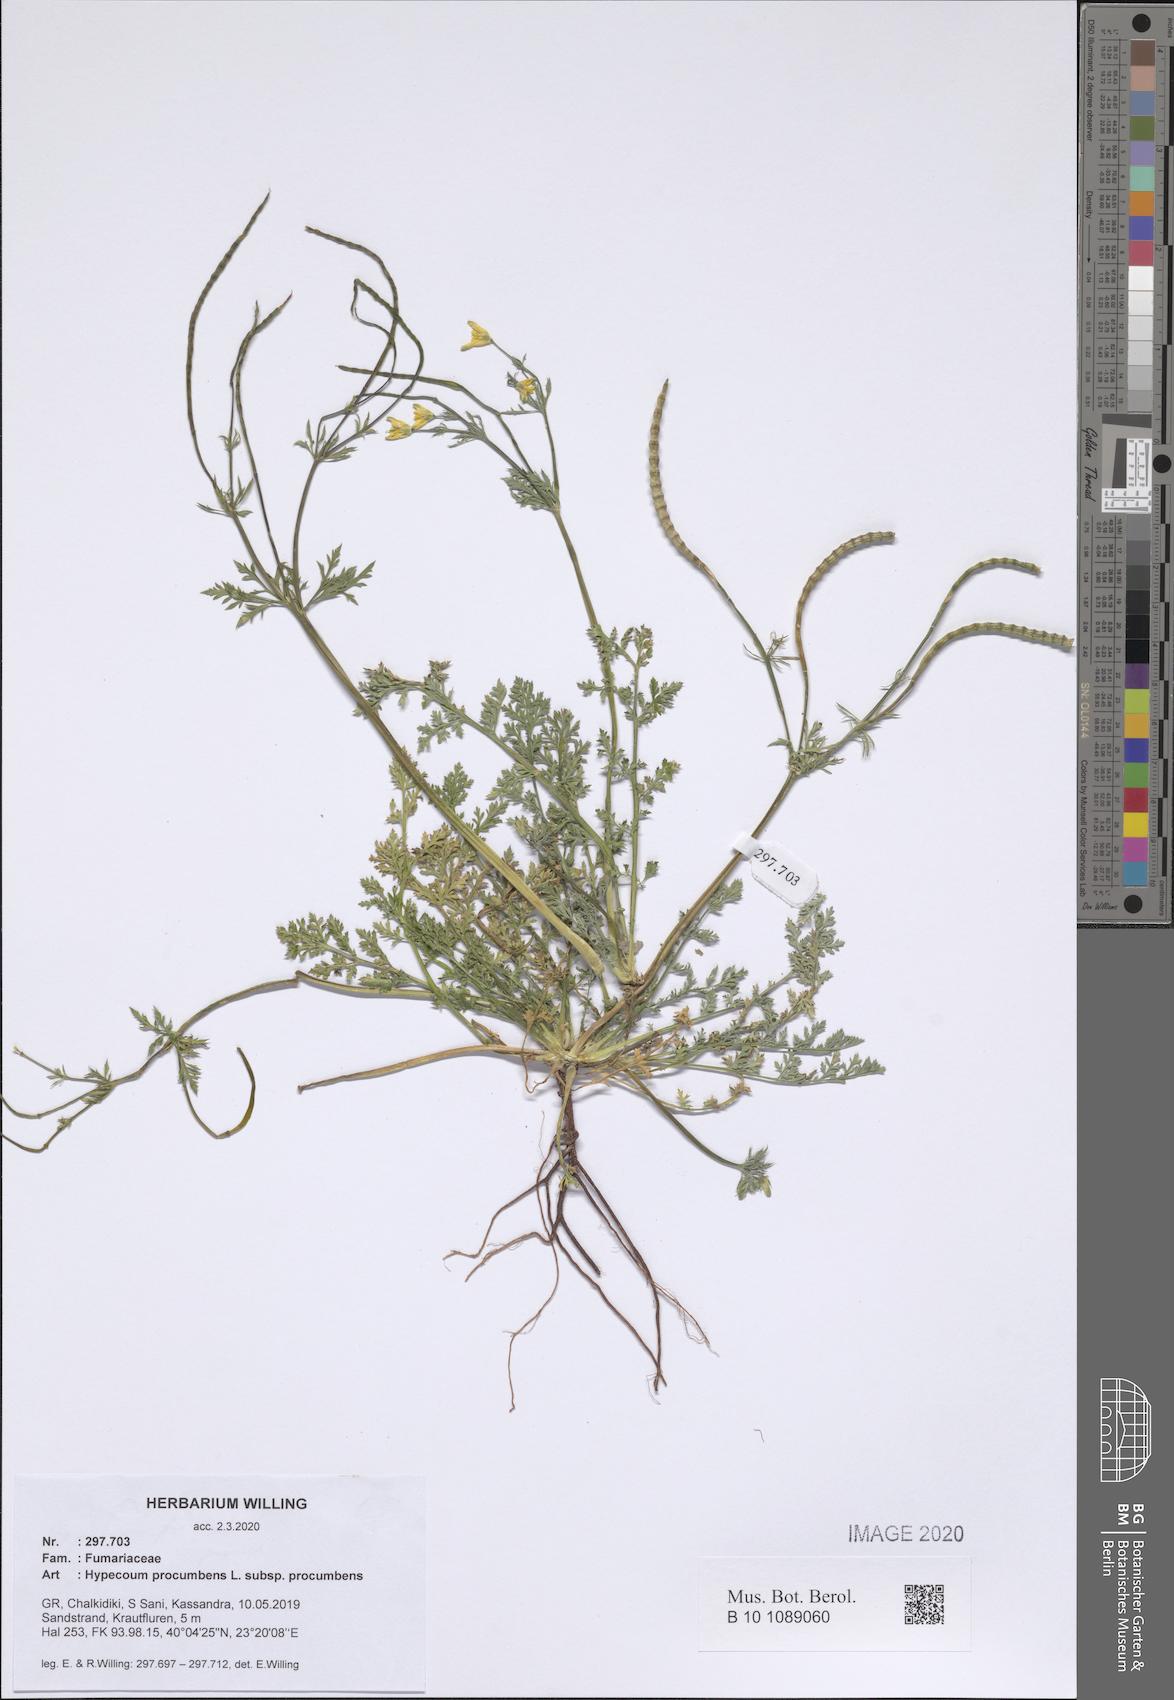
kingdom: Plantae
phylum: Tracheophyta
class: Magnoliopsida
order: Ranunculales
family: Papaveraceae
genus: Hypecoum
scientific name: Hypecoum procumbens
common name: Procumbent hypecoum
